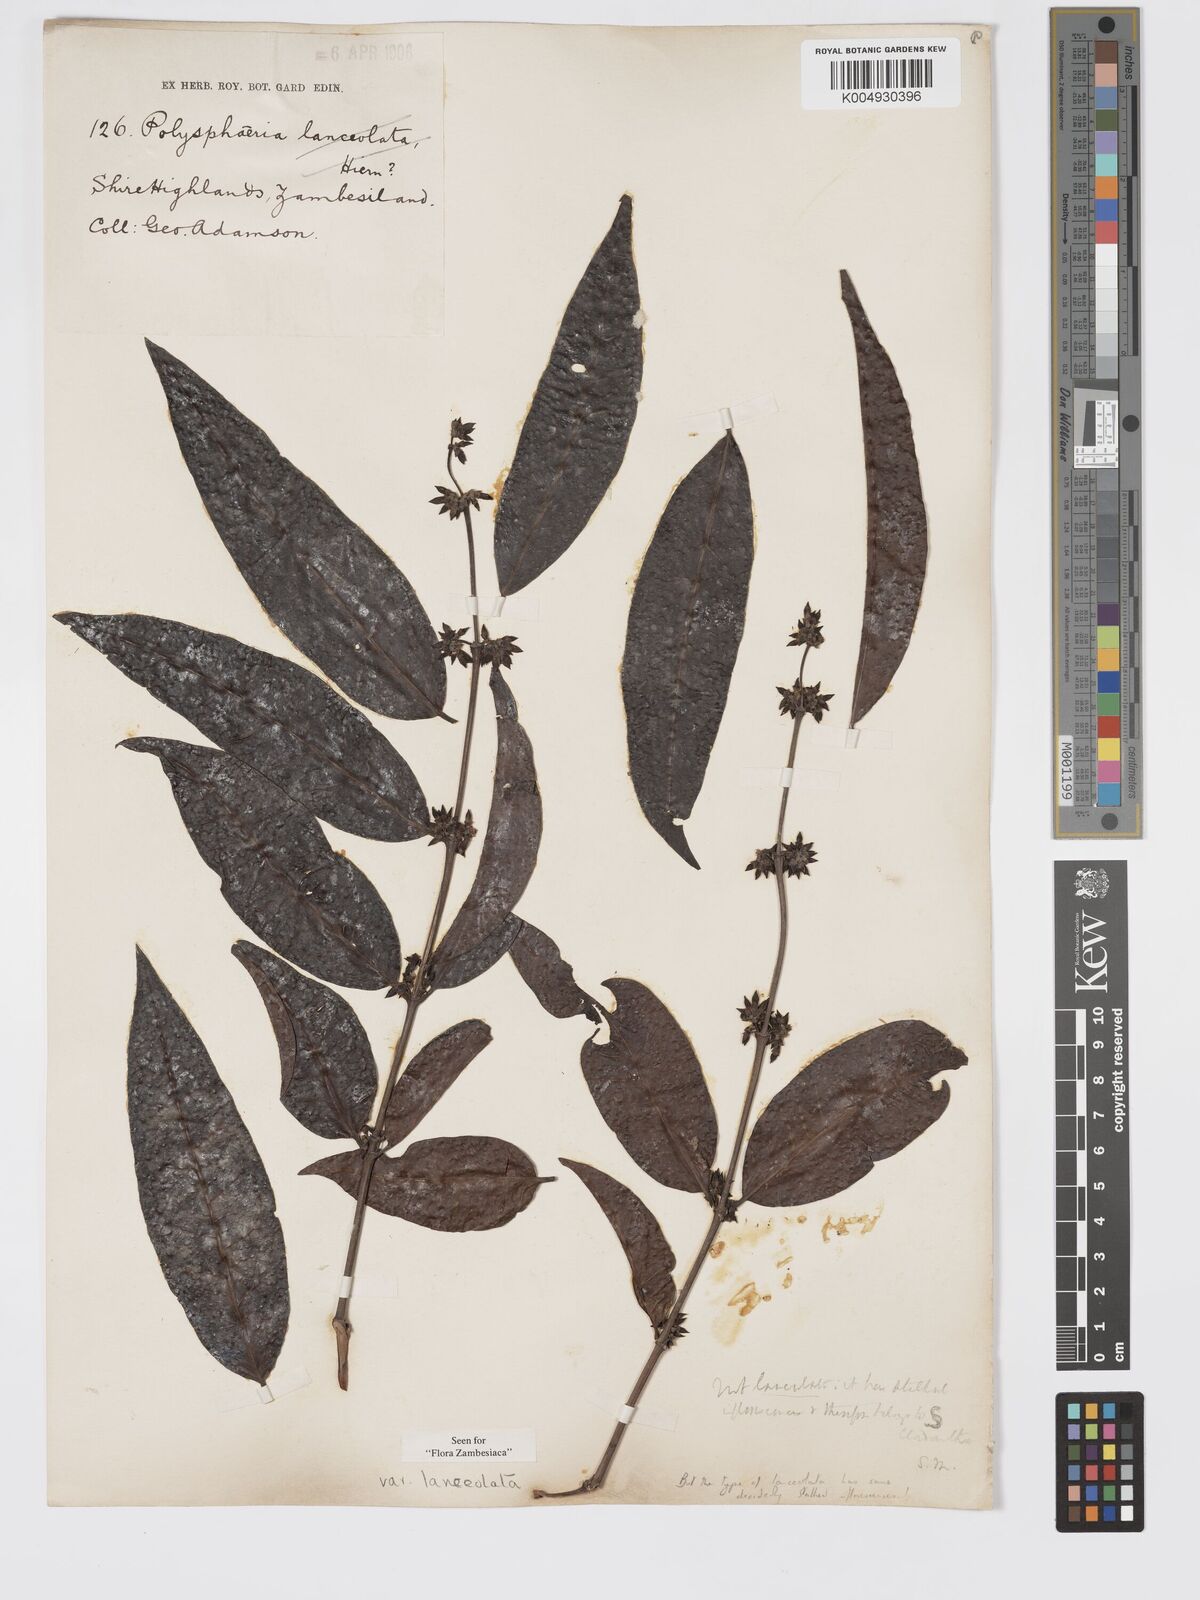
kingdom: Plantae
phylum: Tracheophyta
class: Magnoliopsida
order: Gentianales
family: Rubiaceae
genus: Polysphaeria
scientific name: Polysphaeria lanceolata
